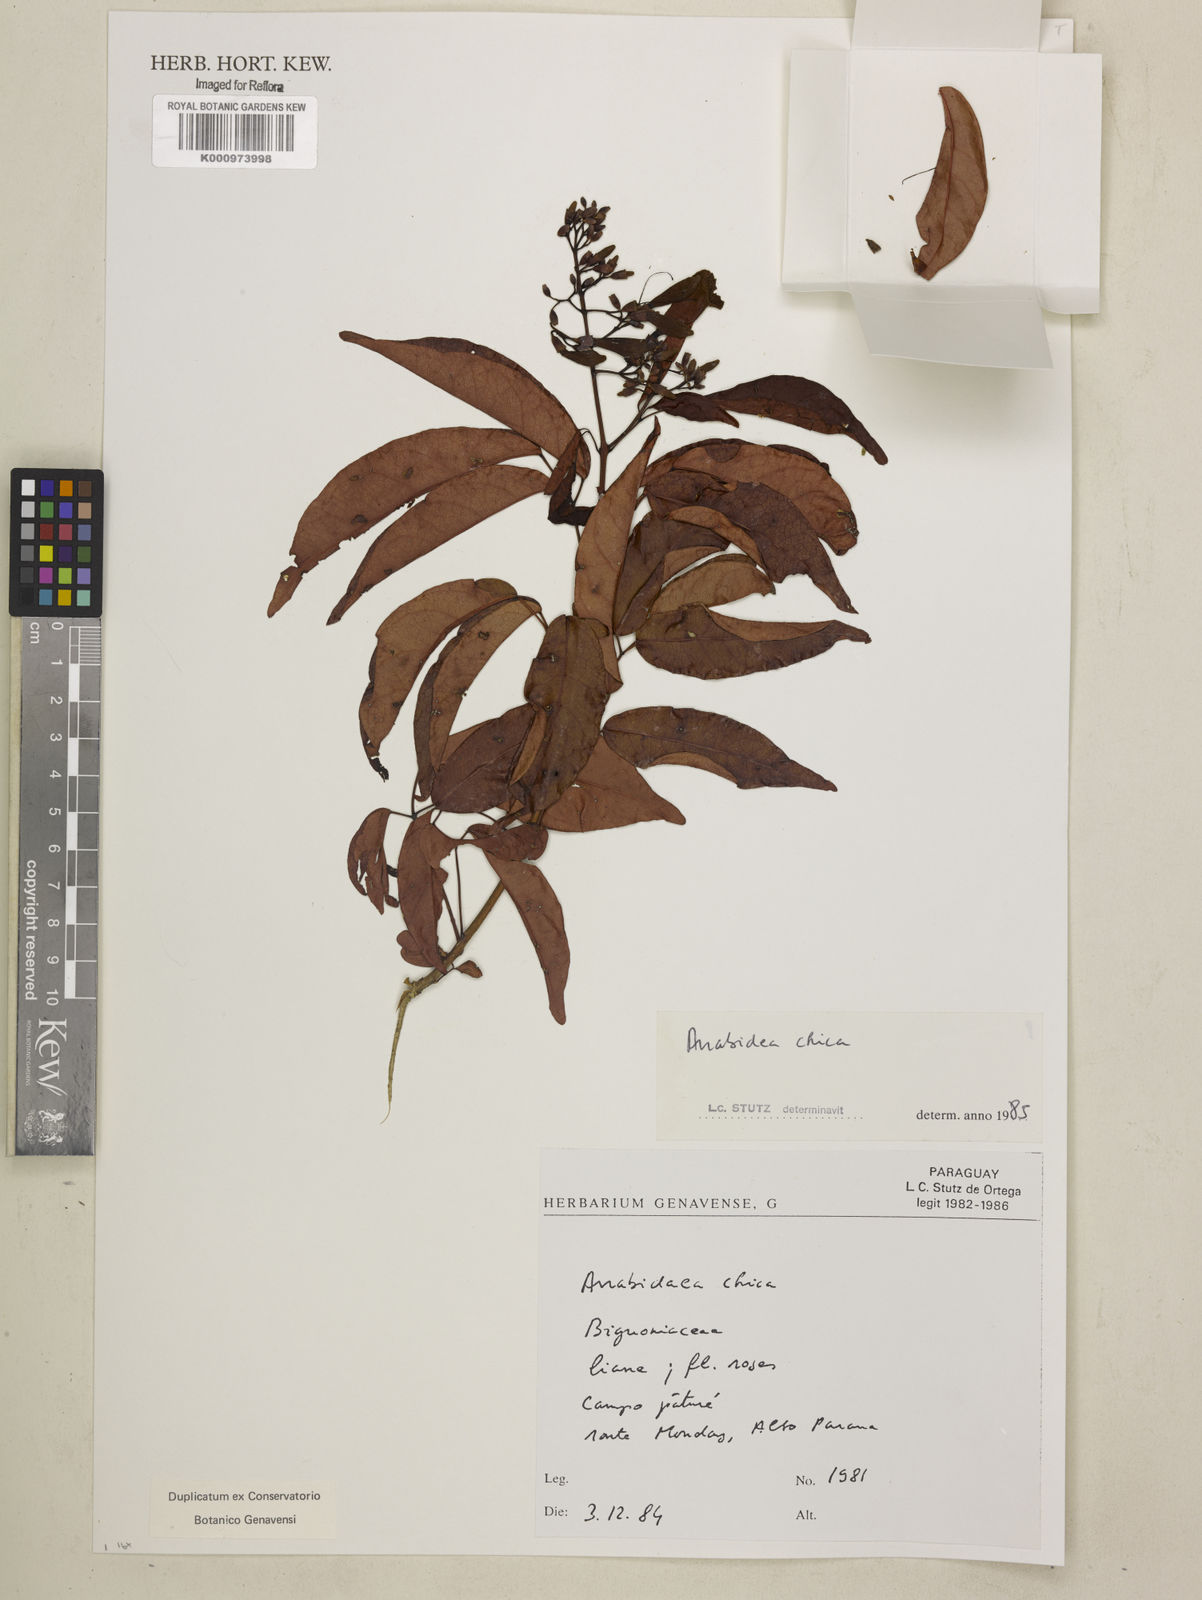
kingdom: Plantae
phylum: Tracheophyta
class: Magnoliopsida
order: Lamiales
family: Bignoniaceae
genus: Fridericia
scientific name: Fridericia chica
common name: Cricketvine
